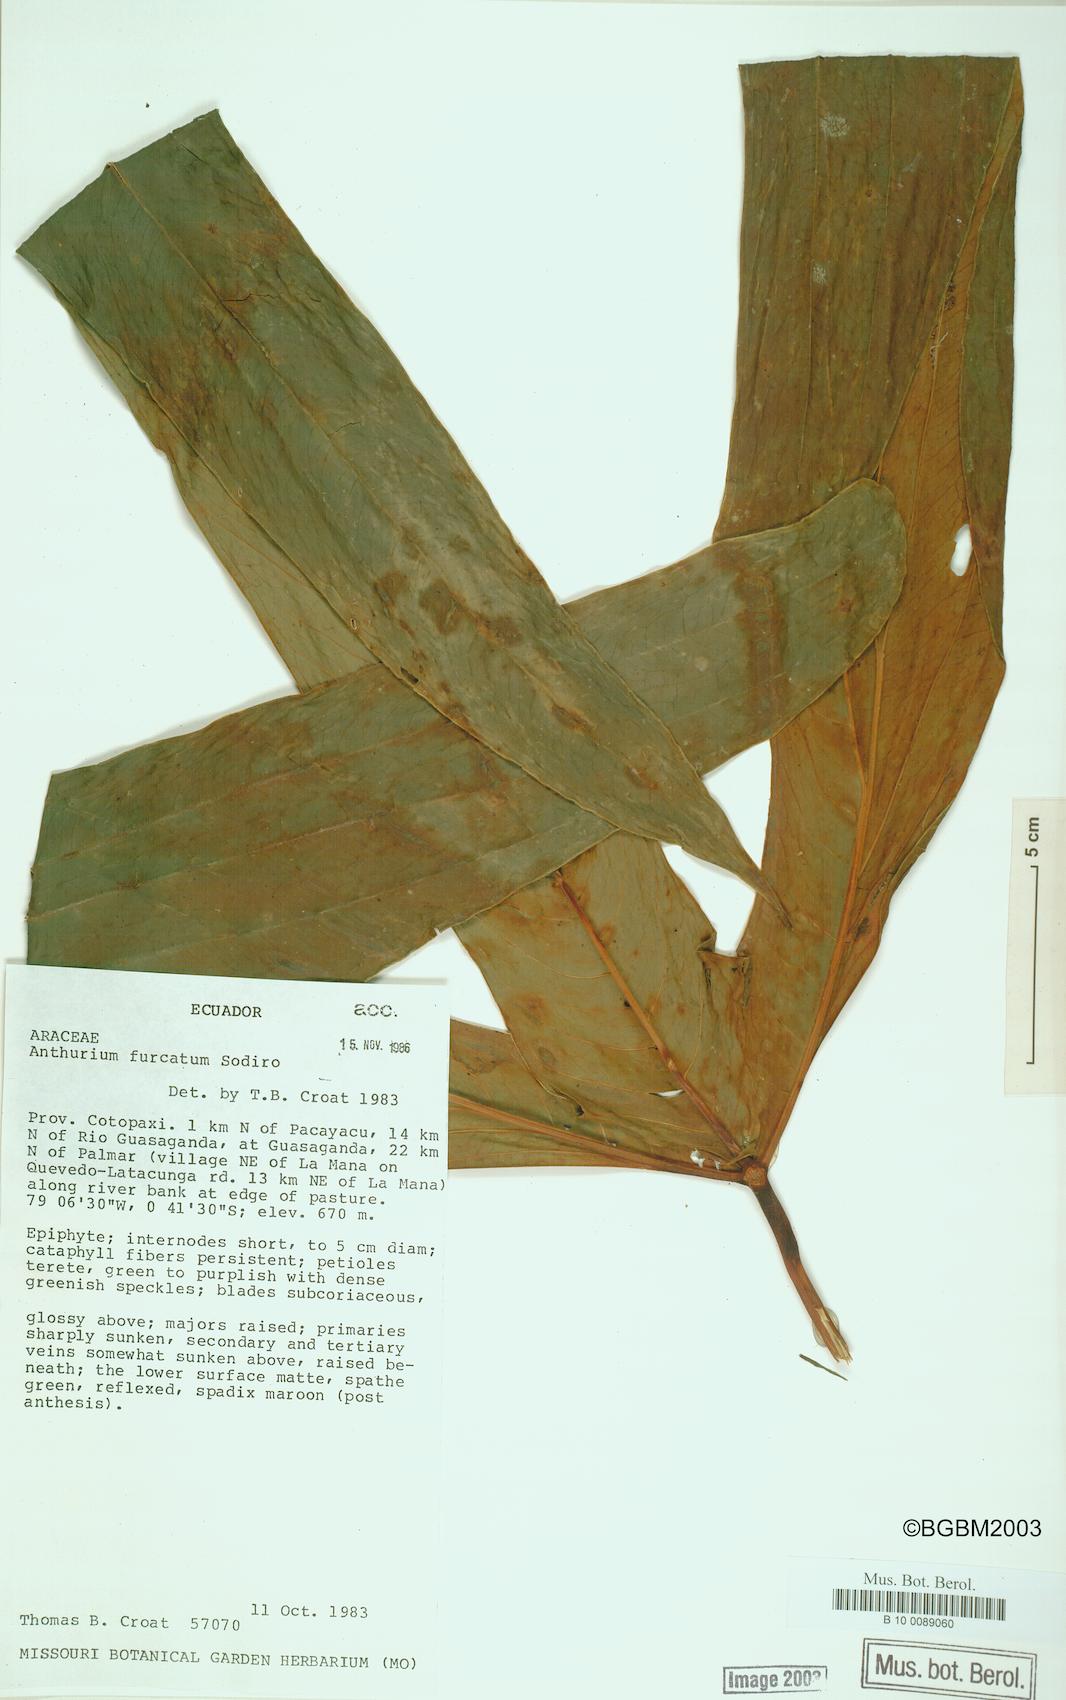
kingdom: Plantae
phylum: Tracheophyta
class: Liliopsida
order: Alismatales
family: Araceae
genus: Anthurium
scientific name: Anthurium furcatum
